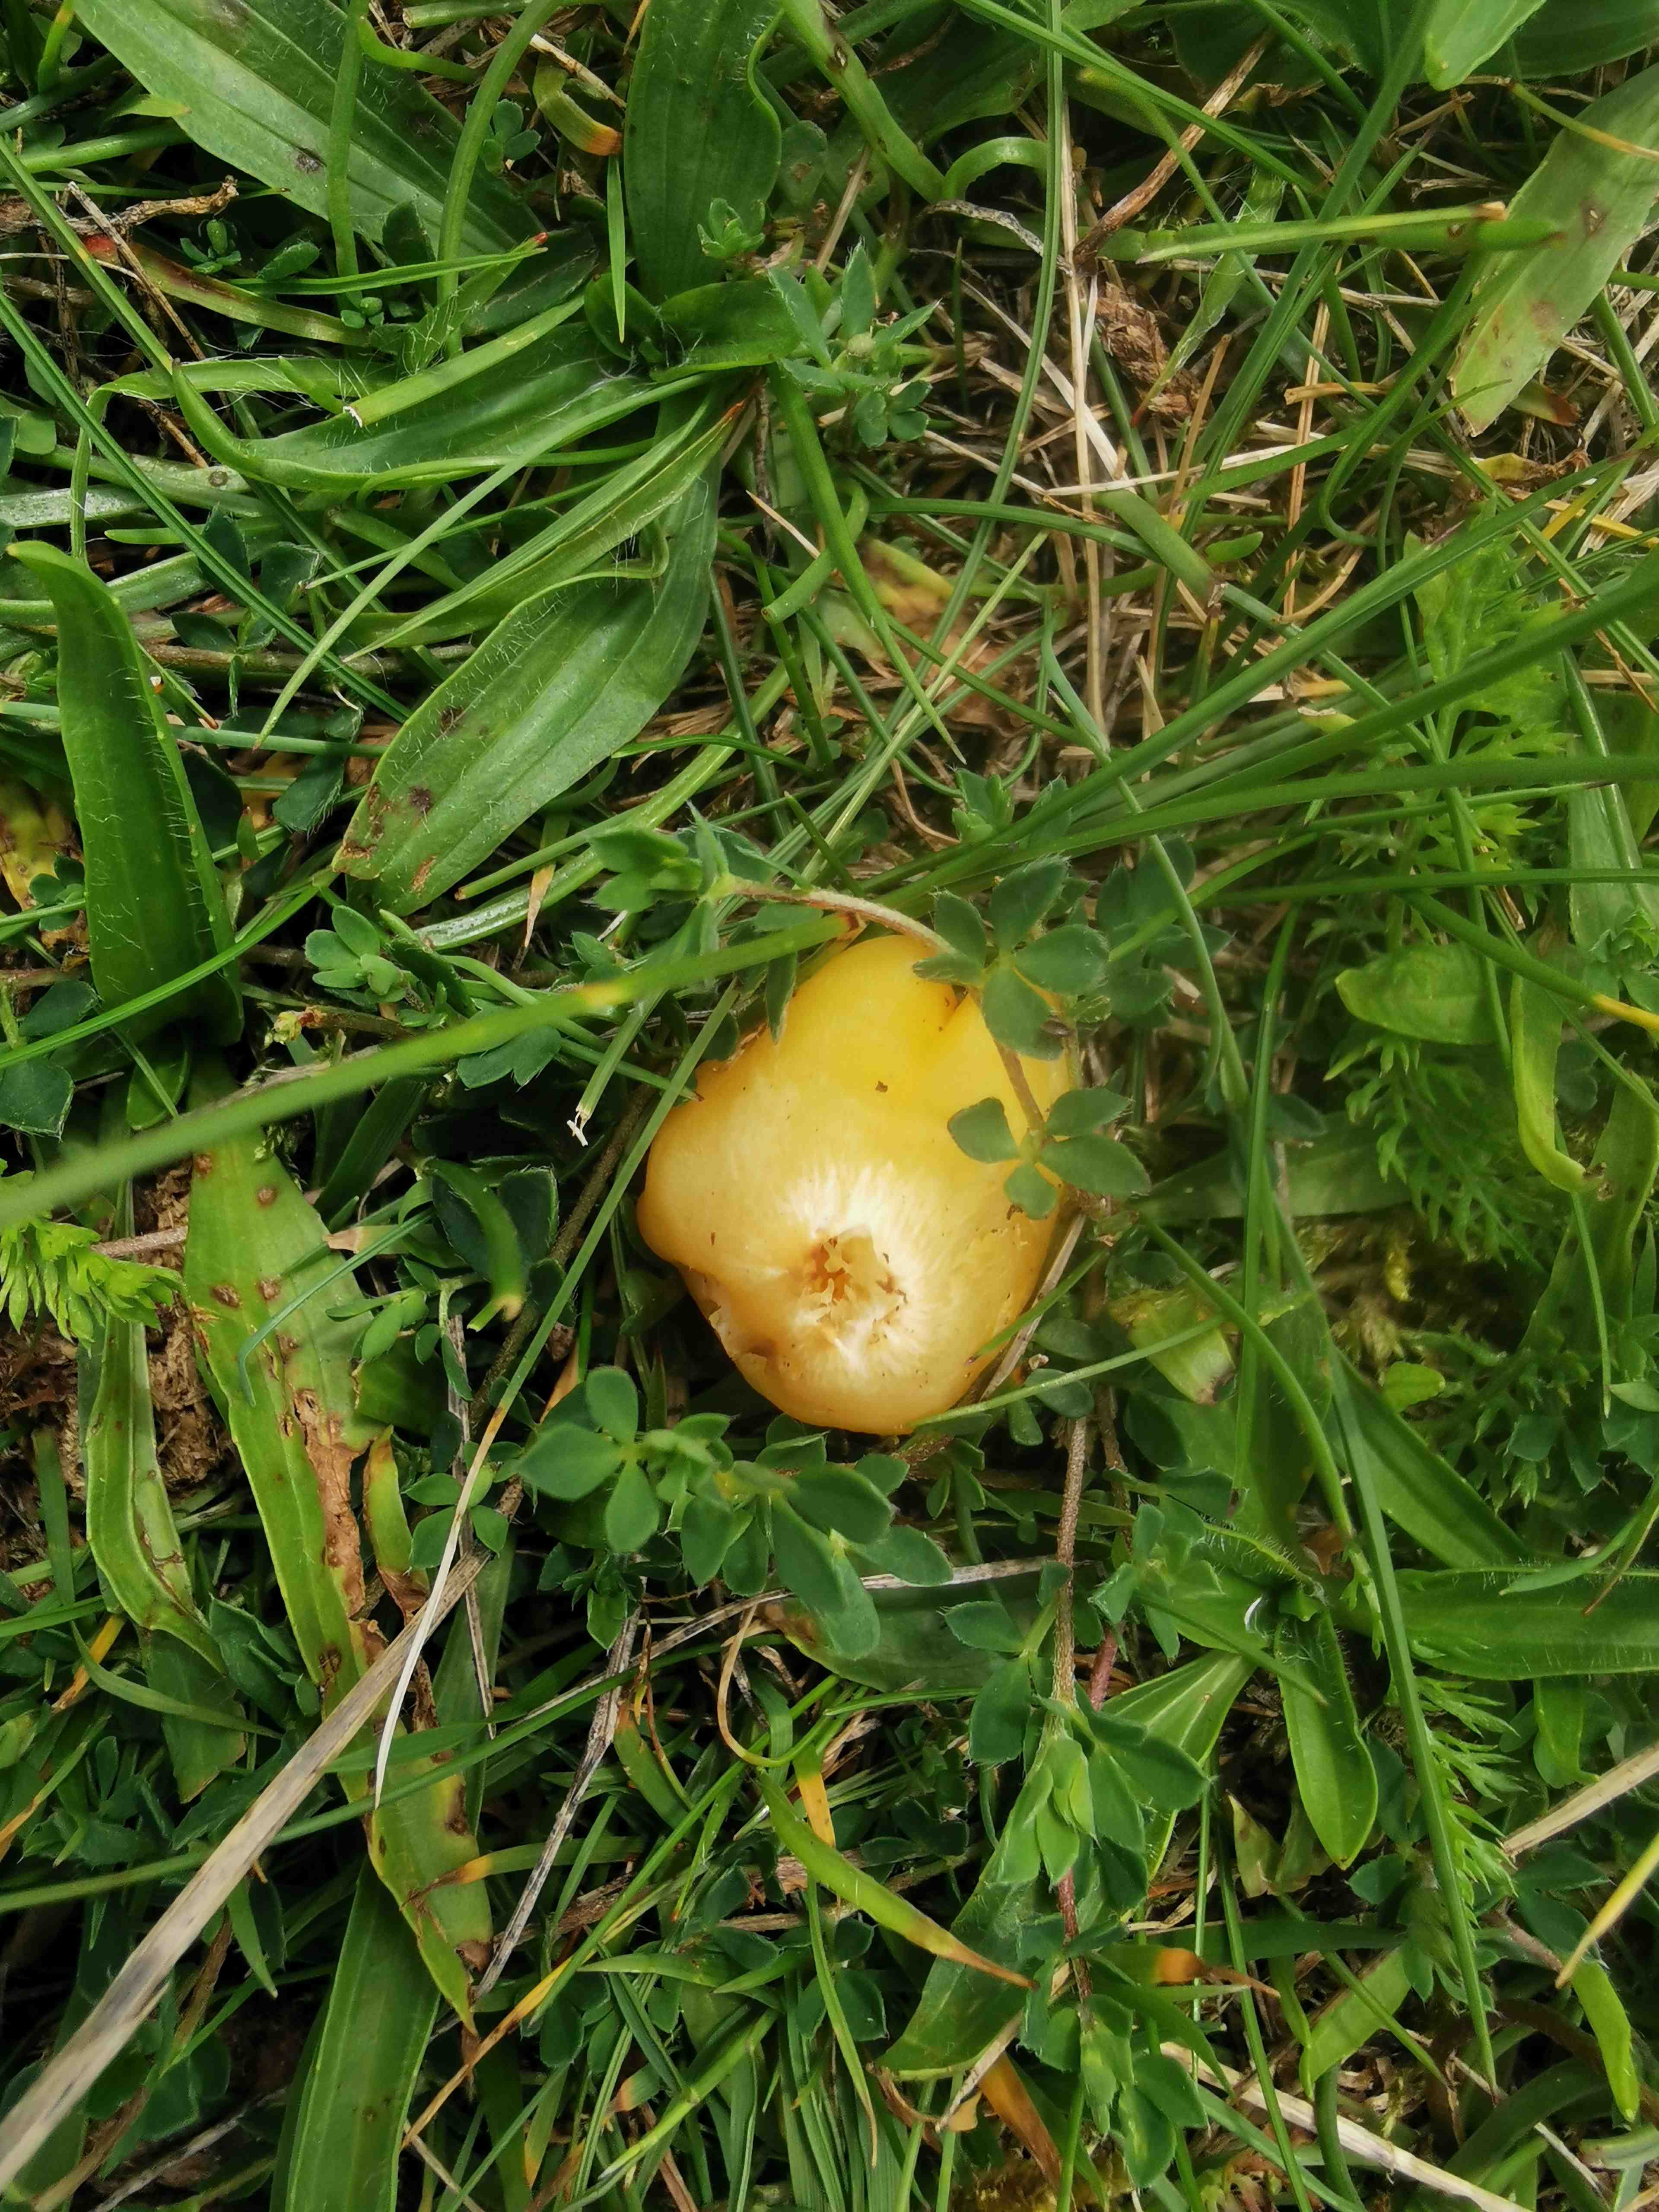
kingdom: Fungi
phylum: Basidiomycota
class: Agaricomycetes
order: Agaricales
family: Hygrophoraceae
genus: Hygrocybe
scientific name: Hygrocybe acutoconica
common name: spidspuklet vokshat
